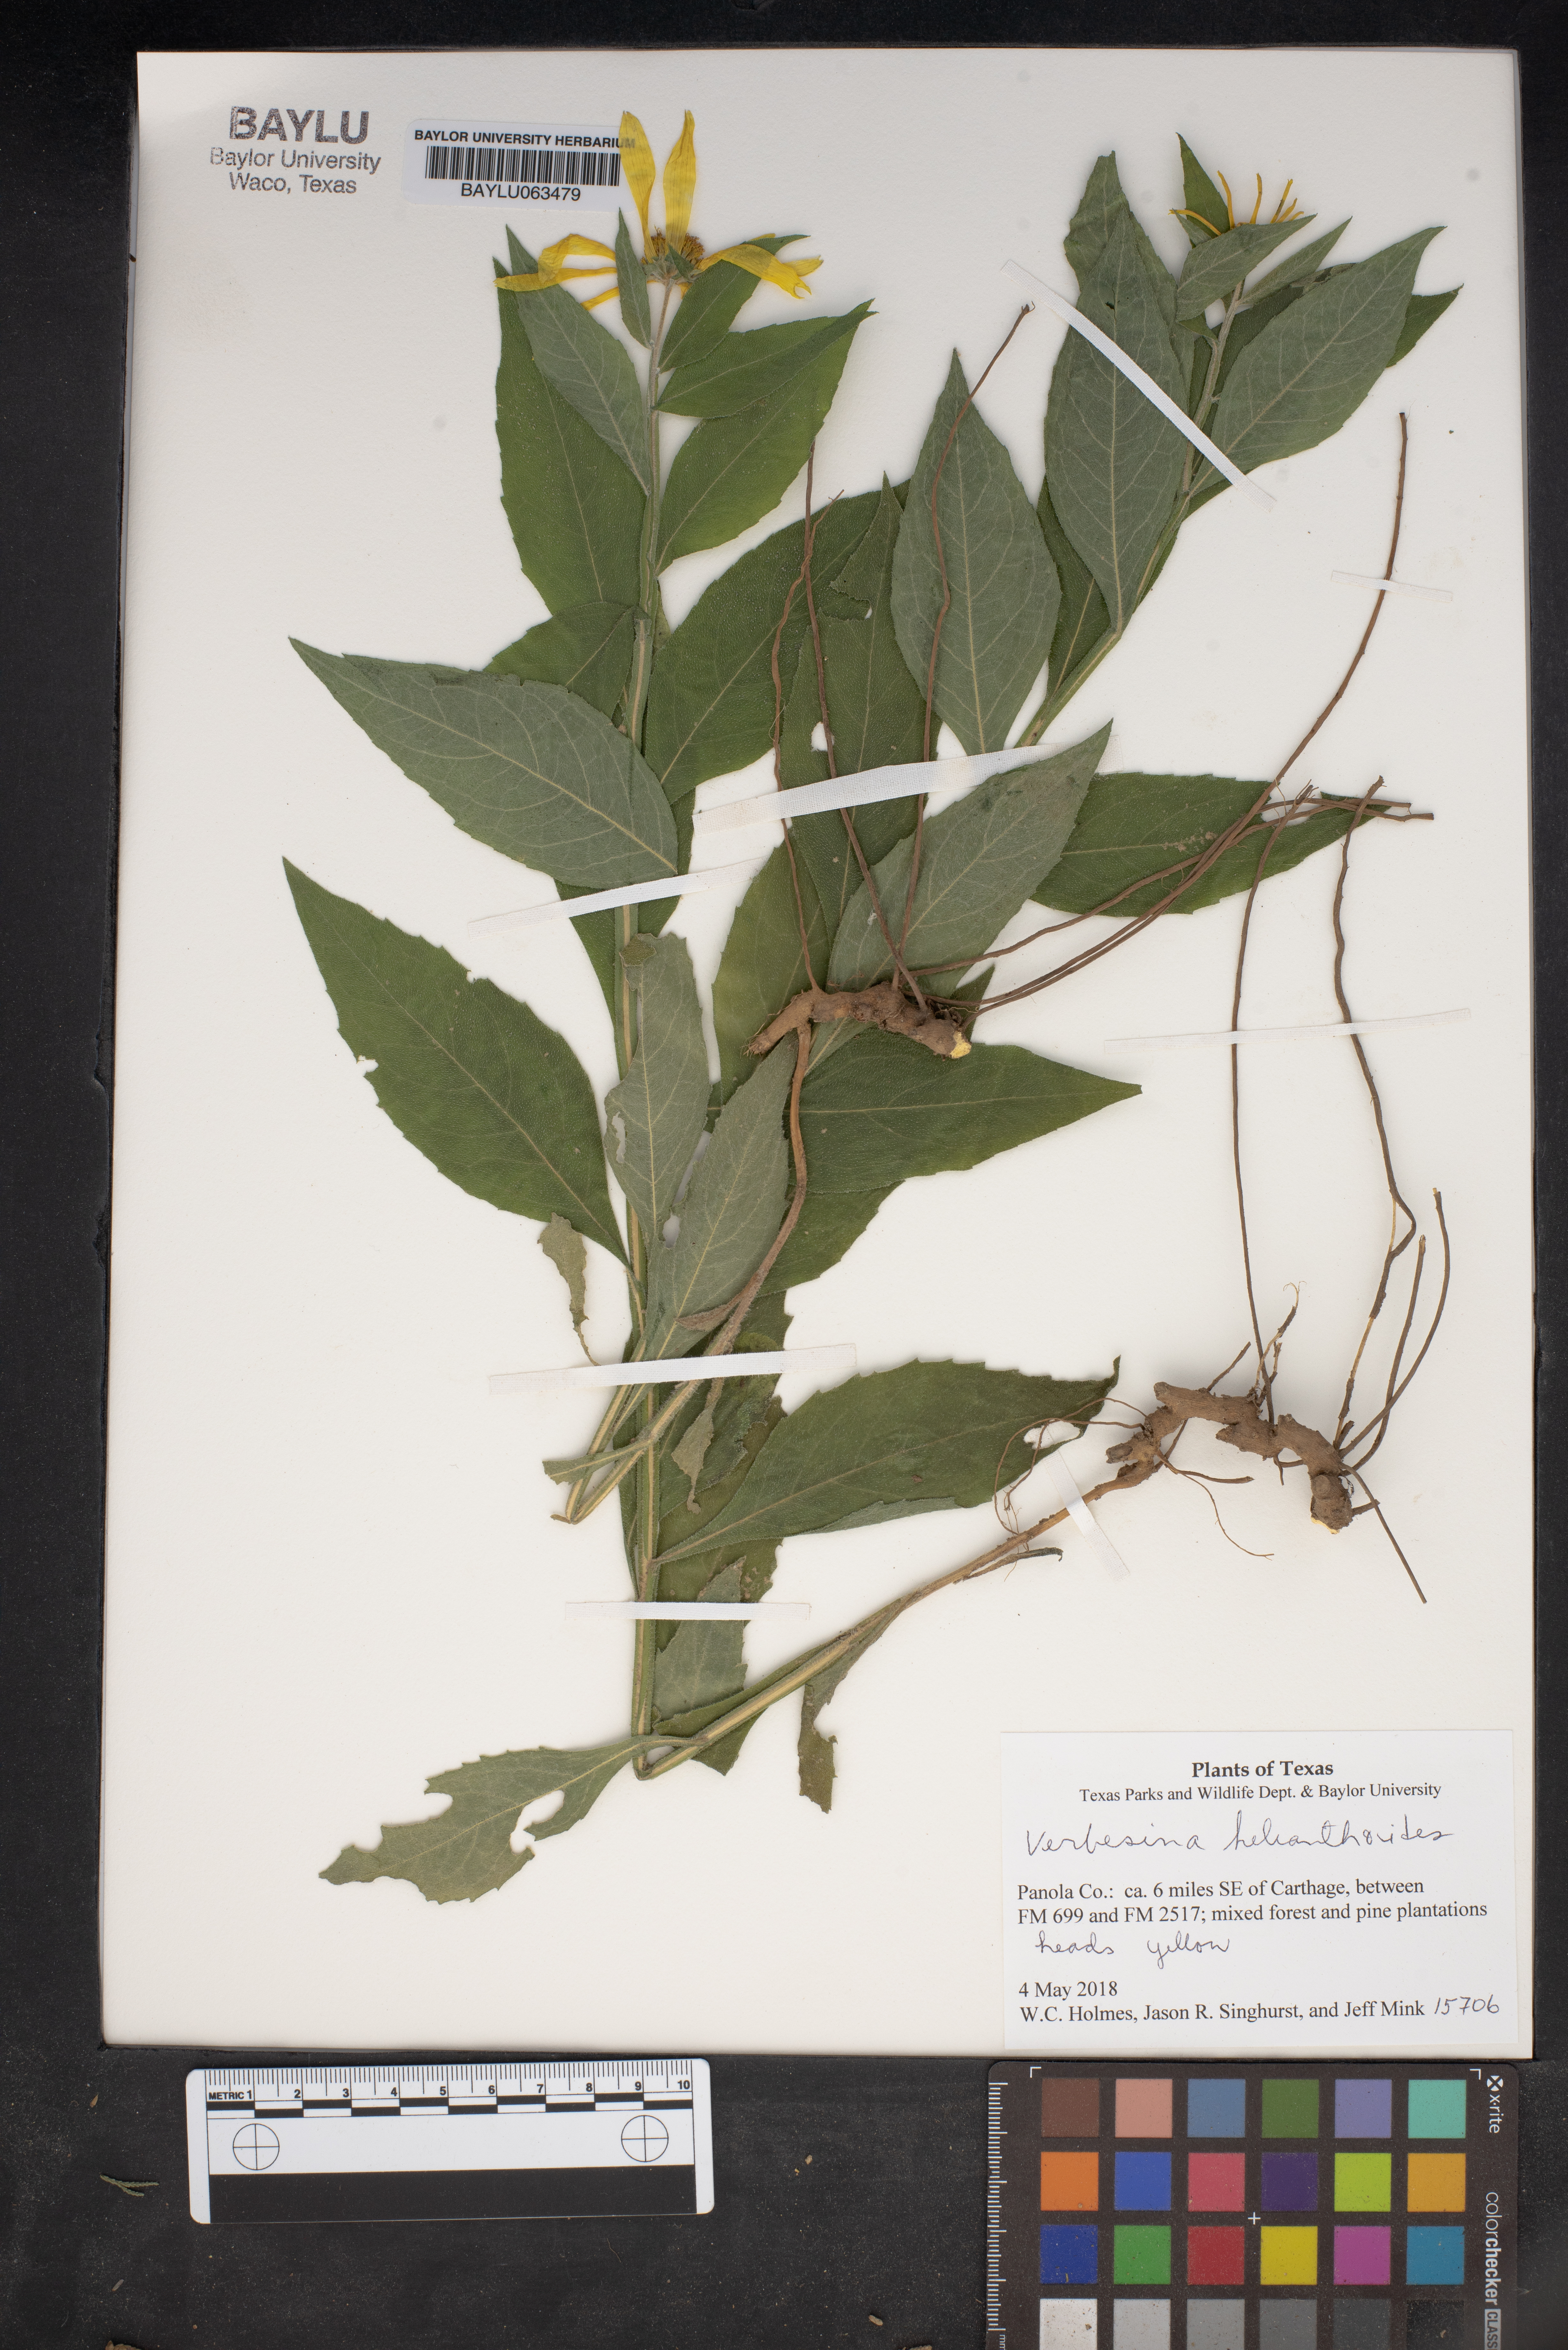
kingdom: Plantae
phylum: Tracheophyta
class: Magnoliopsida
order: Asterales
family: Asteraceae
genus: Verbesina
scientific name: Verbesina helianthoides
